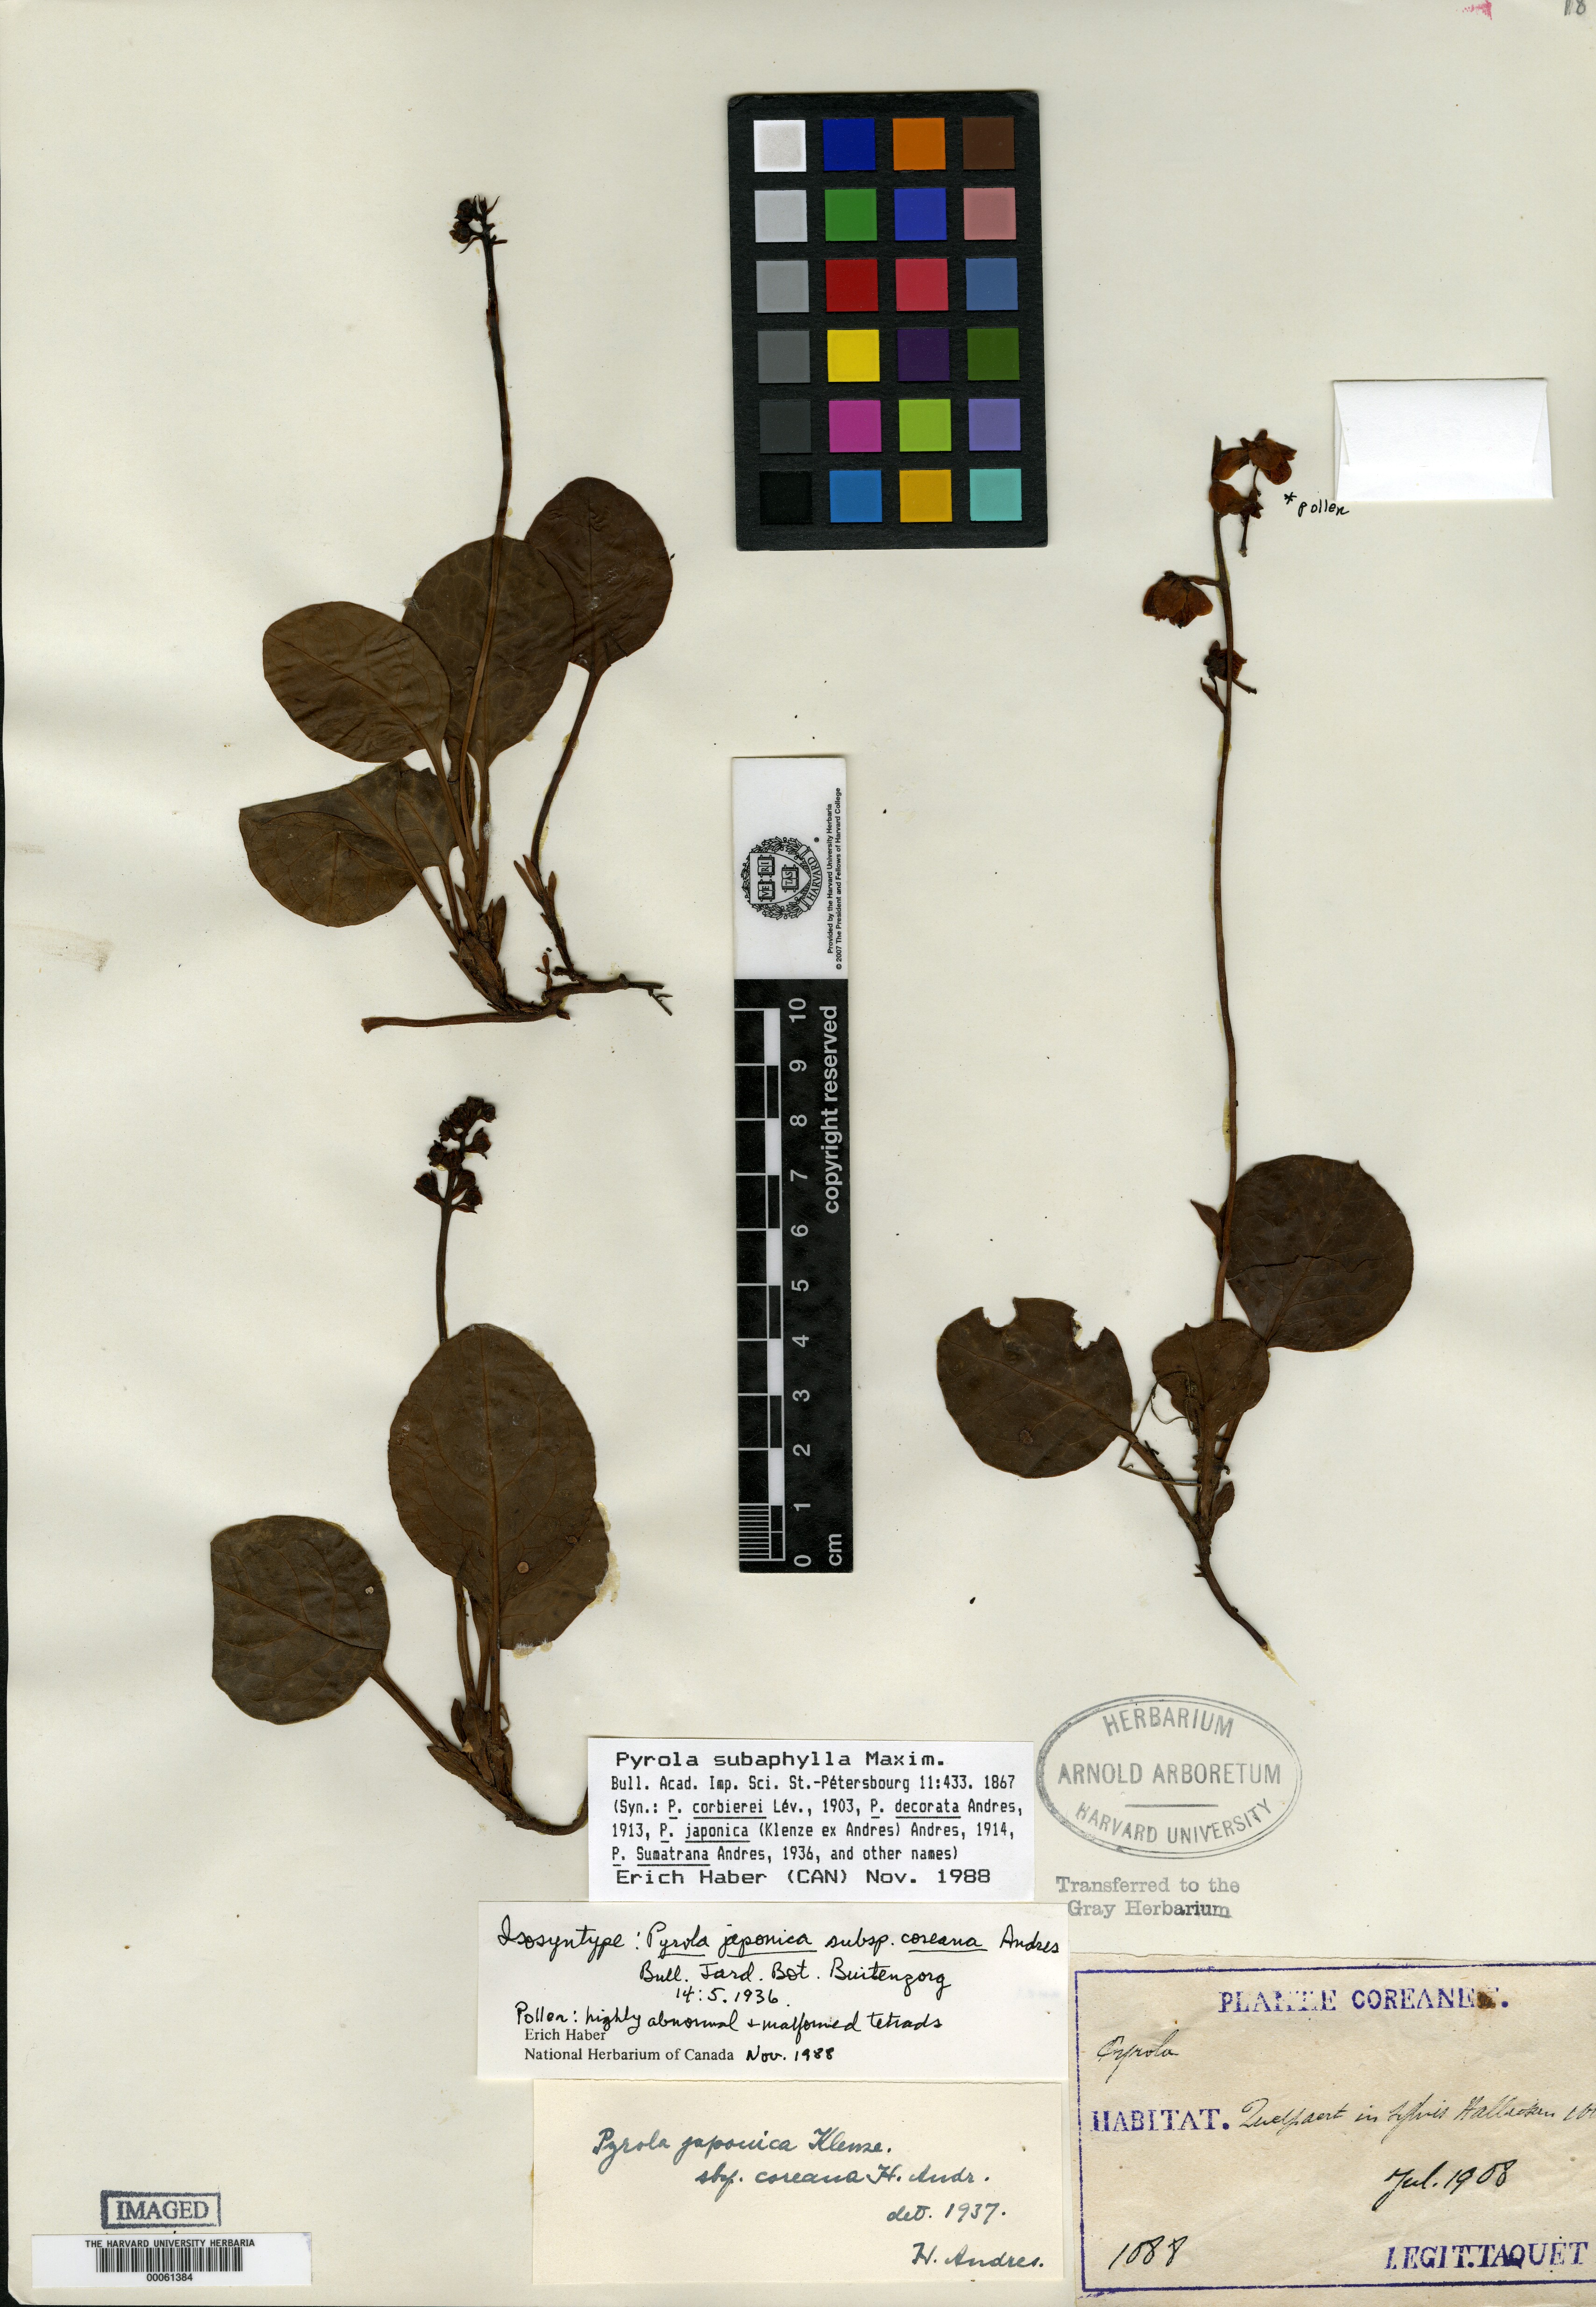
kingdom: Plantae
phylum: Tracheophyta
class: Magnoliopsida
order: Ericales
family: Ericaceae
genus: Pyrola
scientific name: Pyrola japonica
